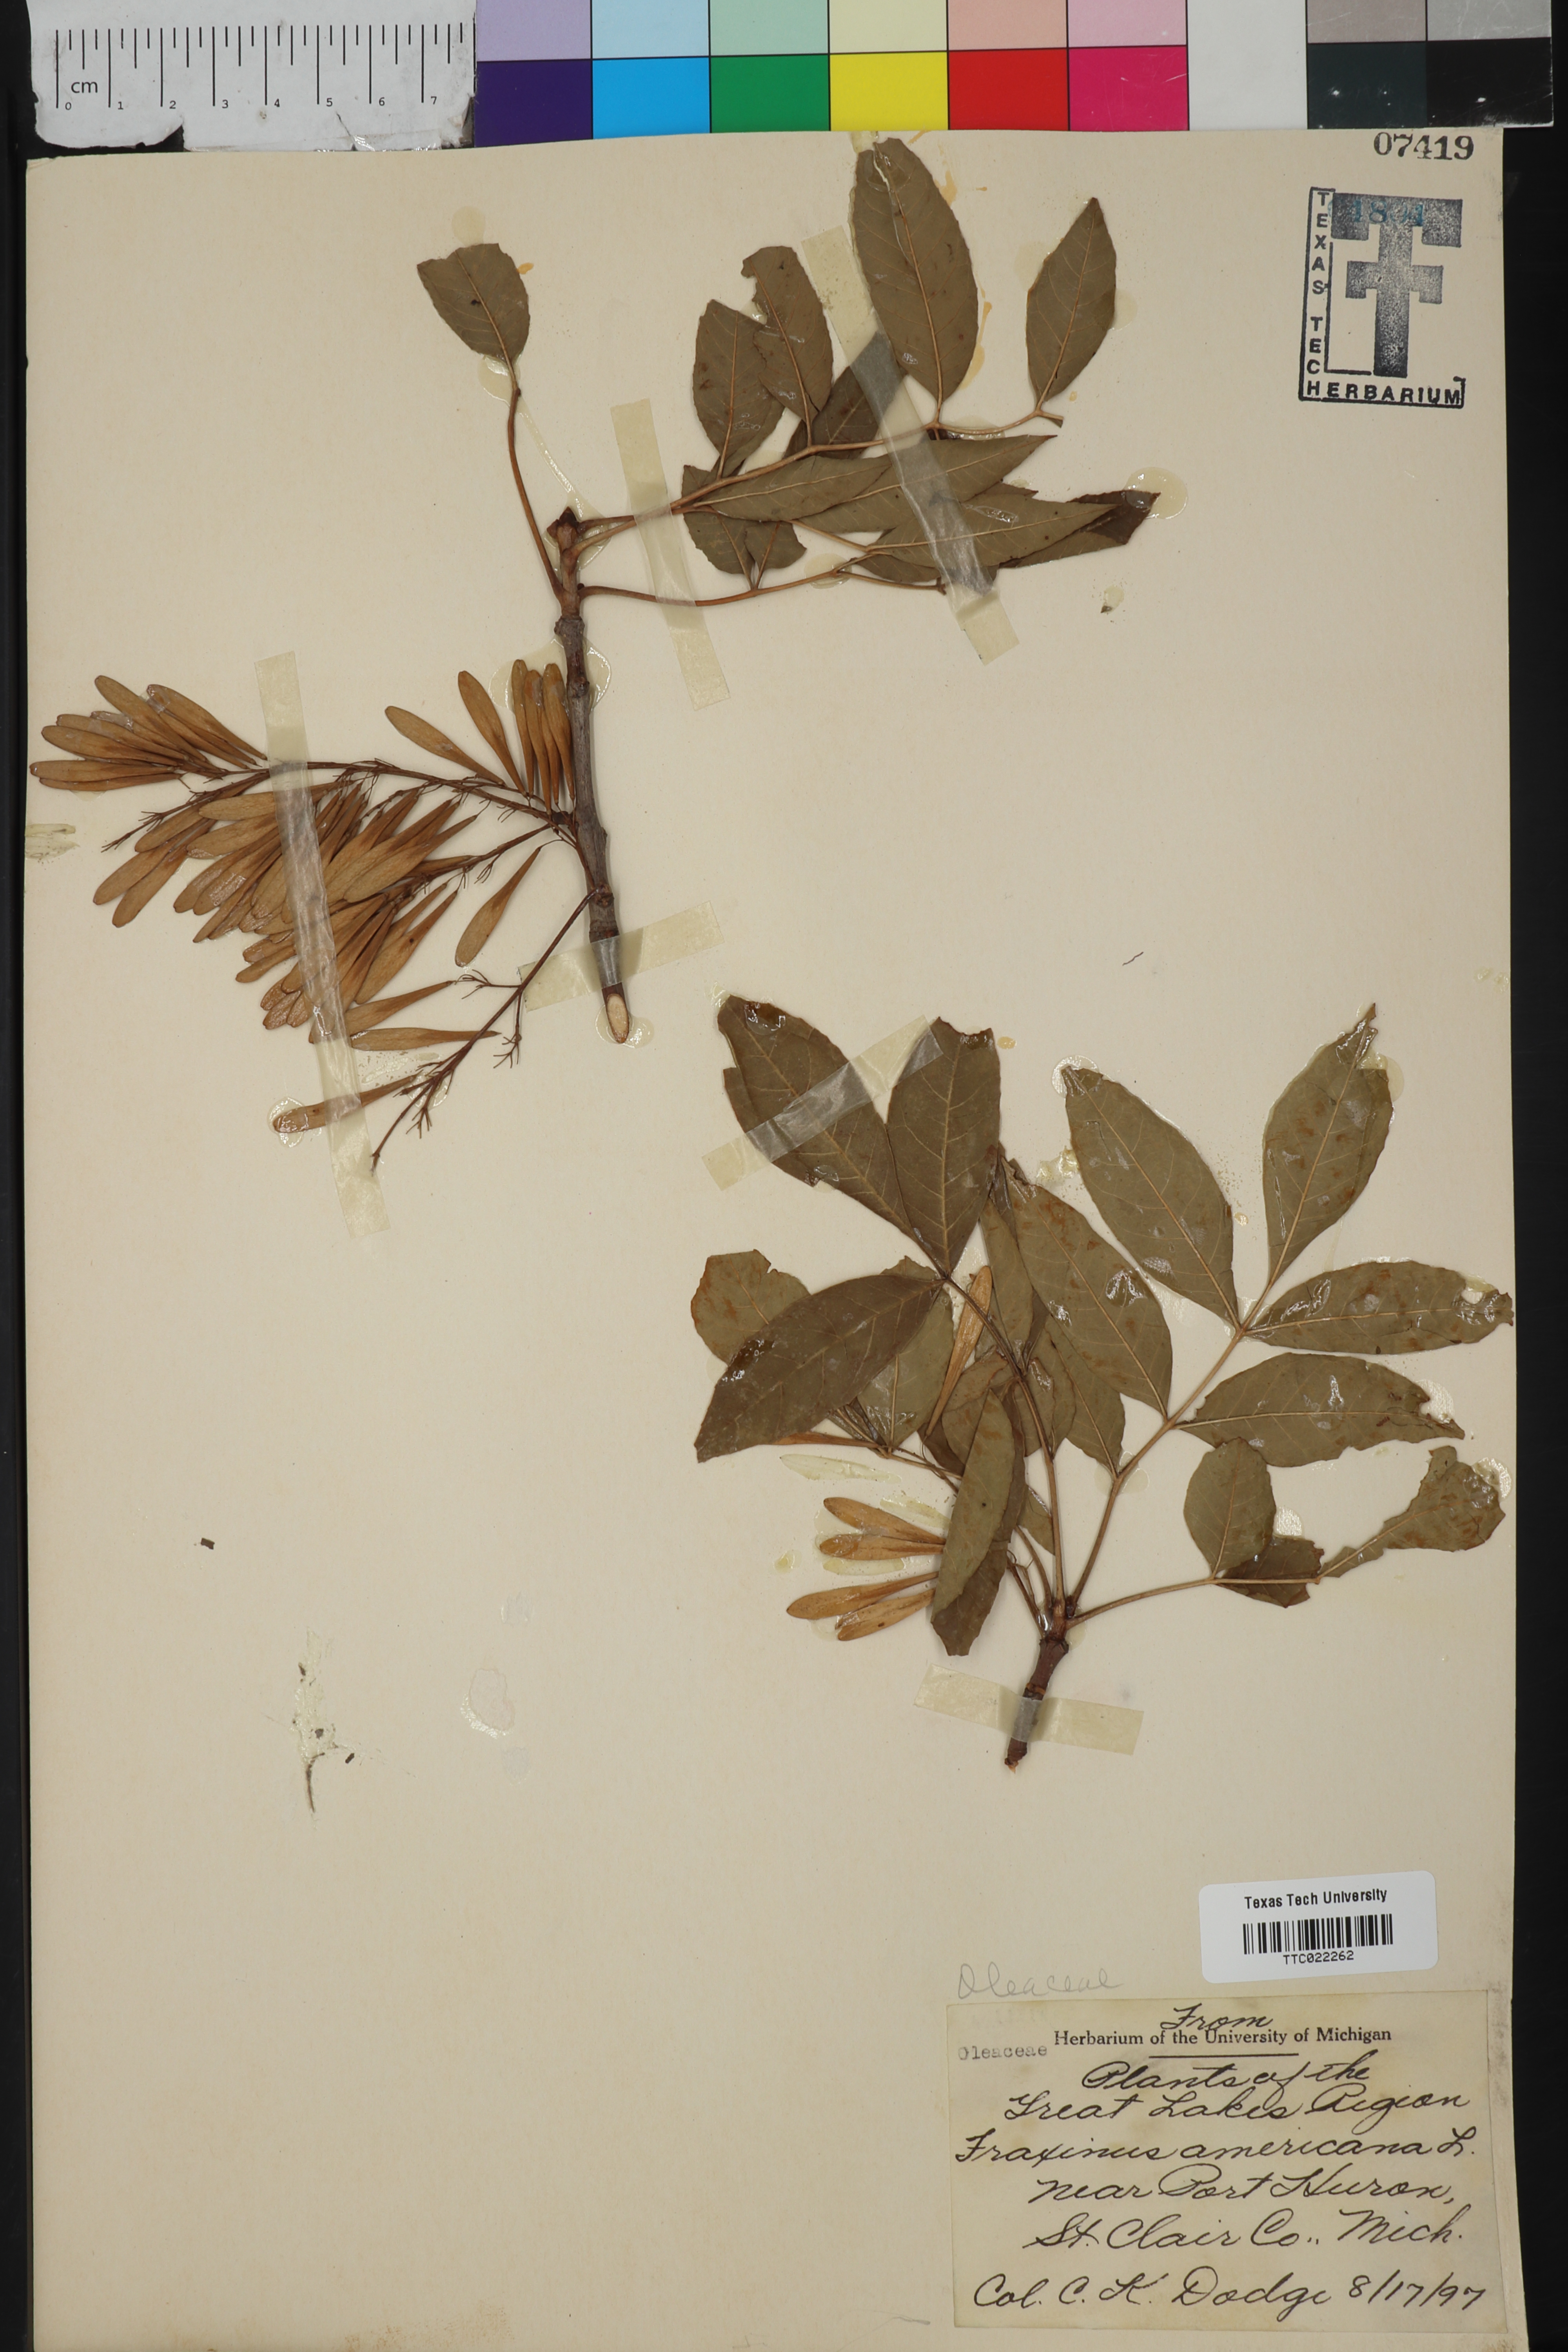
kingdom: Plantae
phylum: Tracheophyta
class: Magnoliopsida
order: Lamiales
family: Oleaceae
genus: Fraxinus
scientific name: Fraxinus americana
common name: White ash
